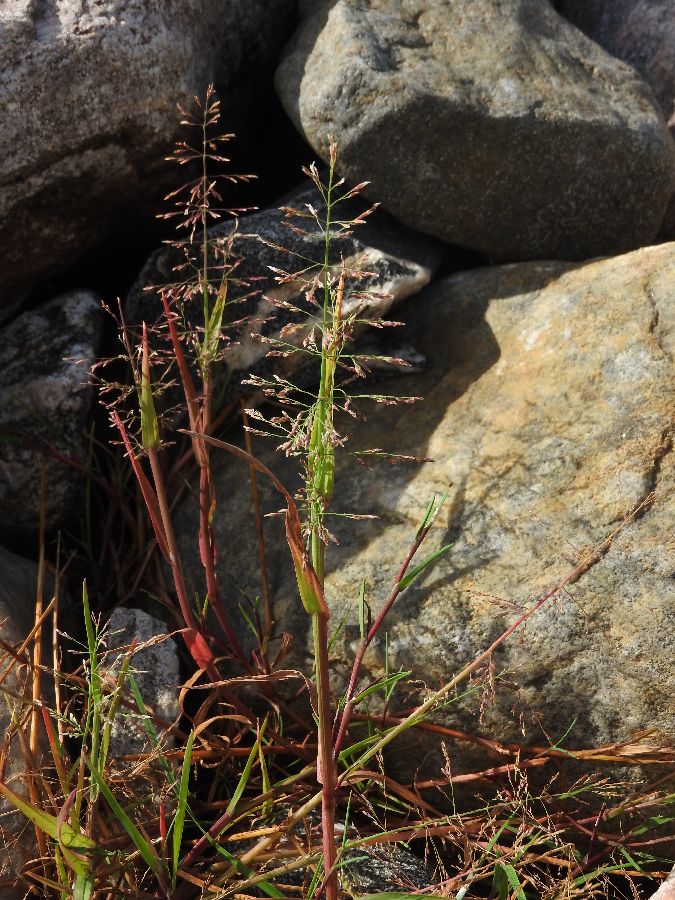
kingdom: Plantae
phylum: Tracheophyta
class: Liliopsida
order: Poales
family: Poaceae
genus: Catabrosa
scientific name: Catabrosa aquatica
